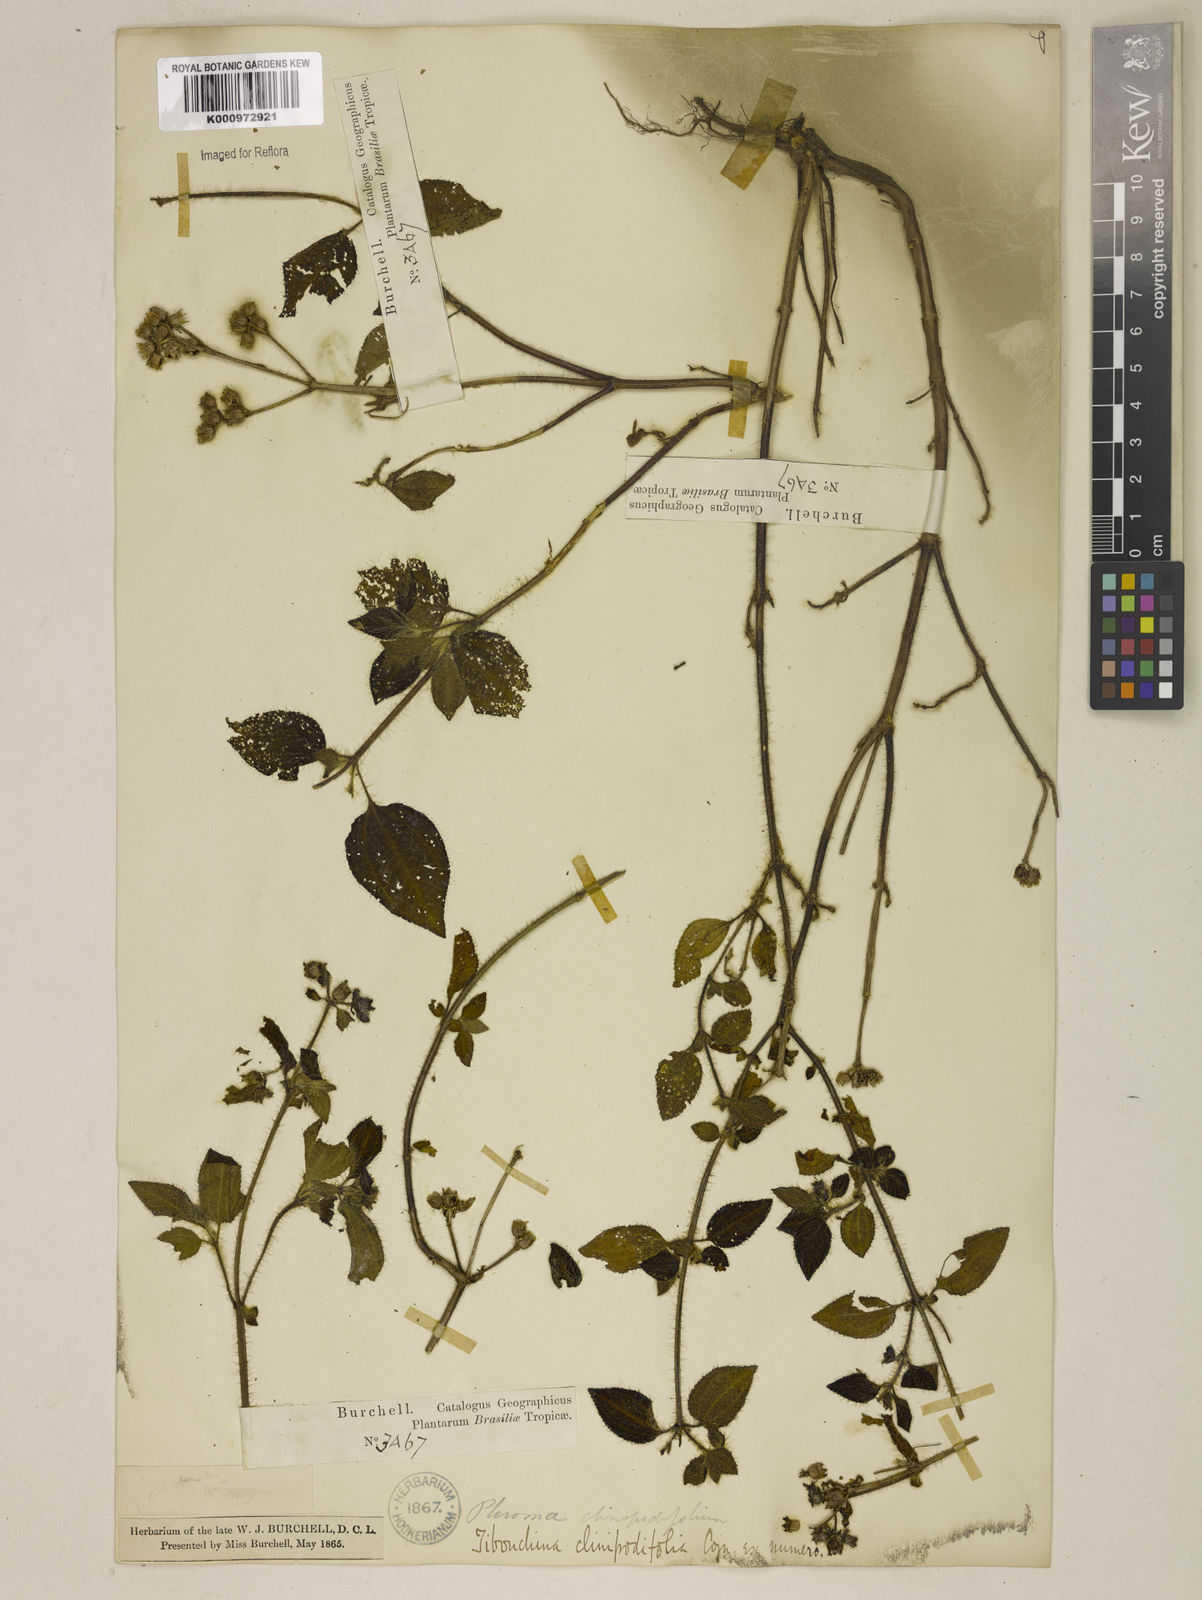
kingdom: Plantae
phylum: Tracheophyta
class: Magnoliopsida
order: Myrtales
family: Melastomataceae
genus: Chaetogastra
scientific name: Chaetogastra clinopodifolia
